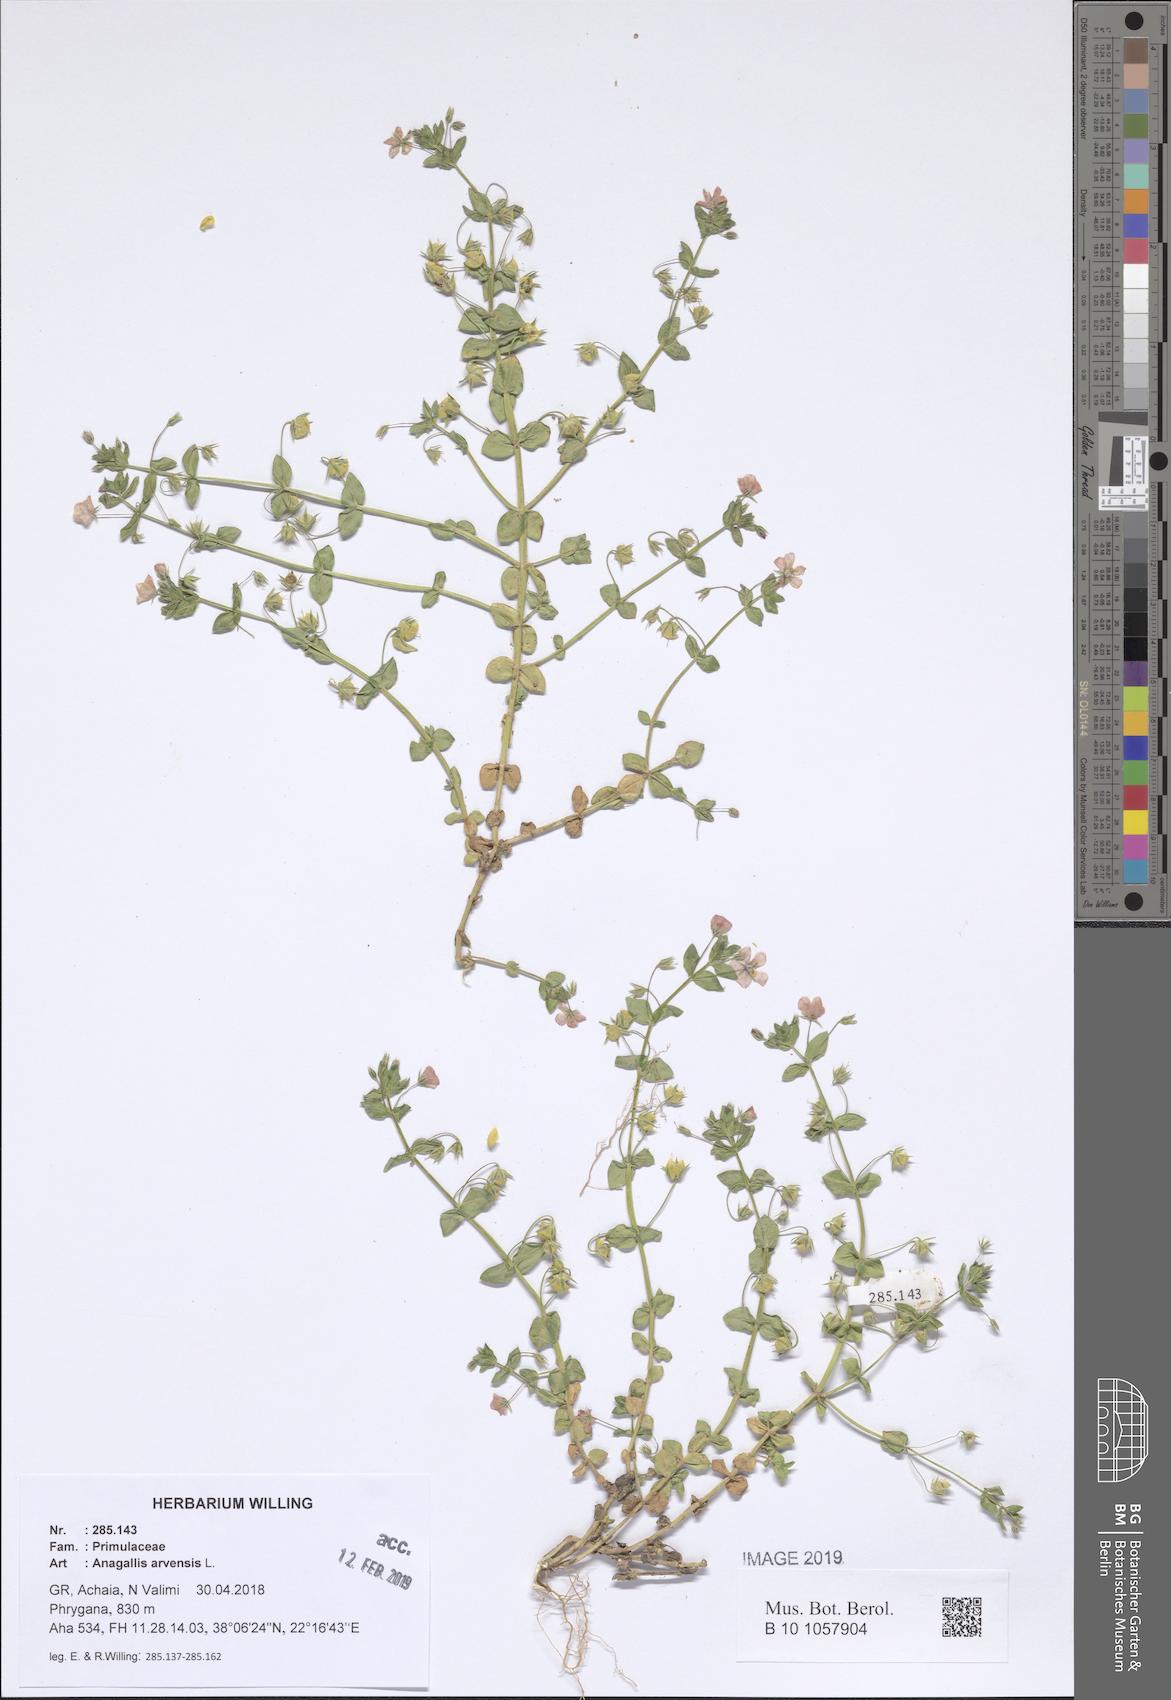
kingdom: Plantae
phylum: Tracheophyta
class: Magnoliopsida
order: Ericales
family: Primulaceae
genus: Lysimachia
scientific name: Lysimachia arvensis
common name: Scarlet pimpernel
